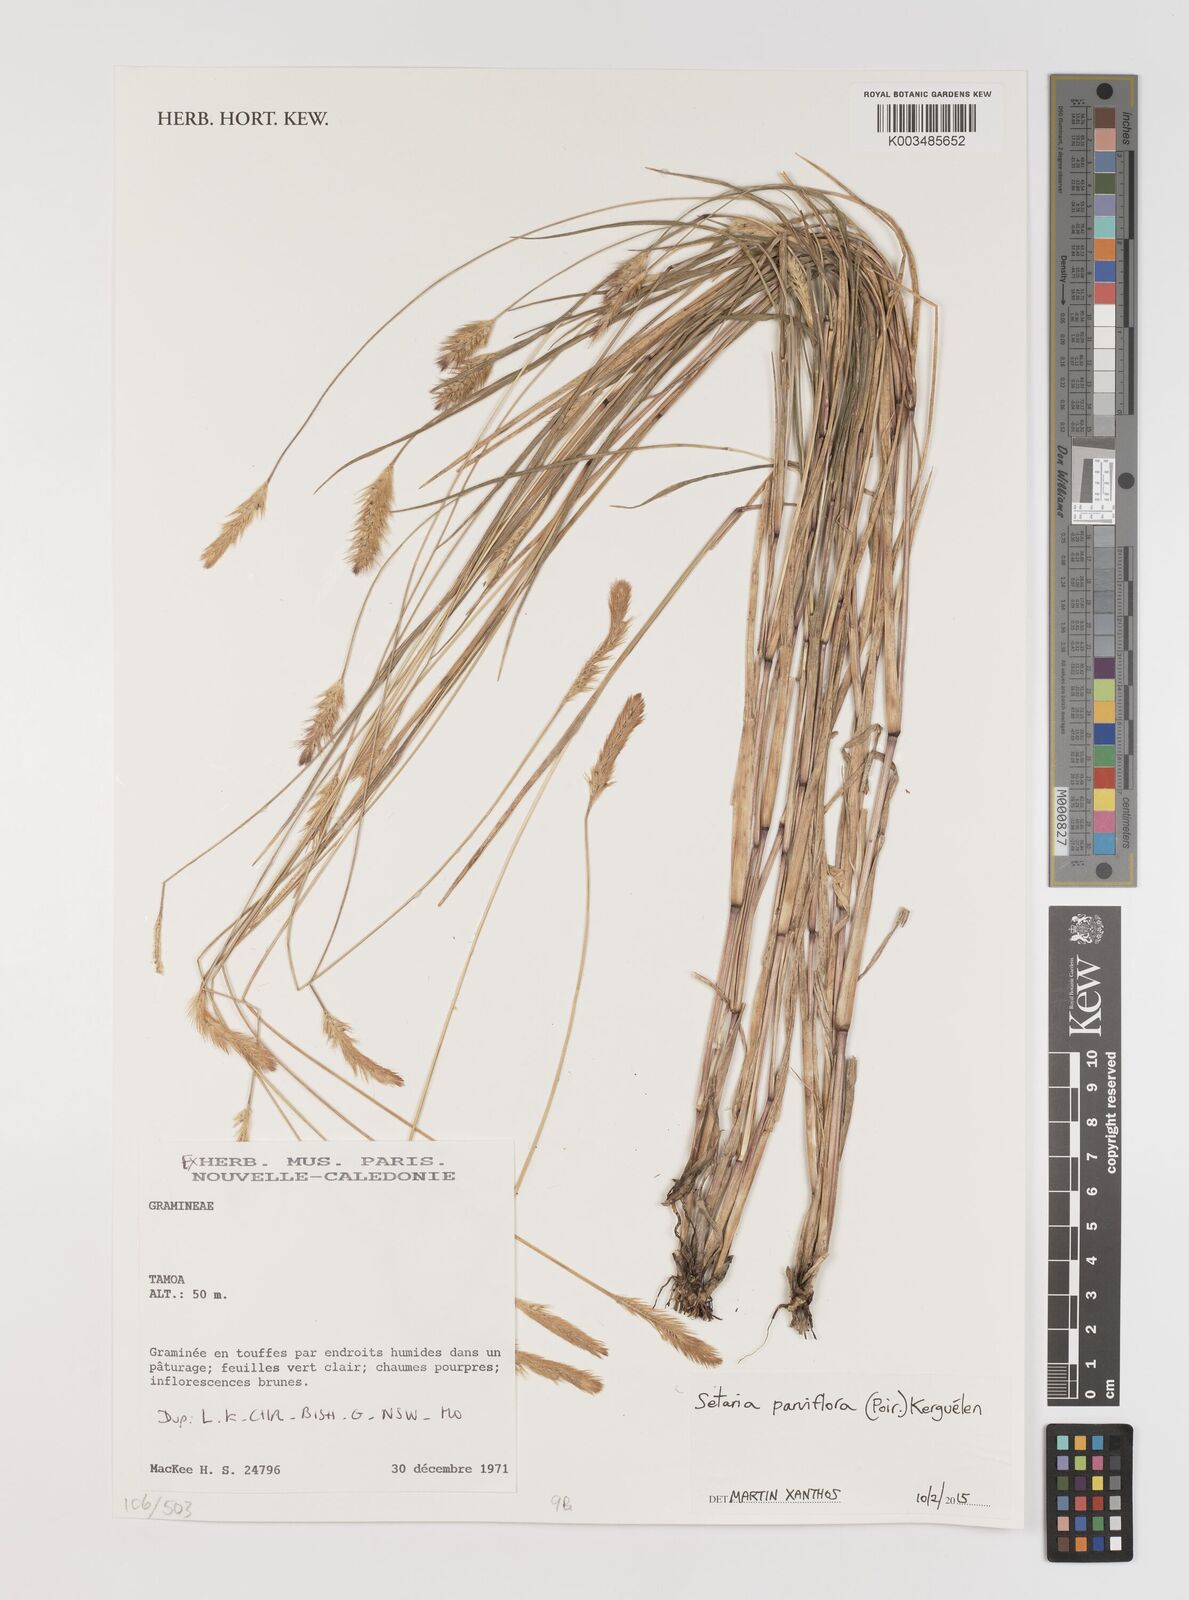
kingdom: Plantae
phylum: Tracheophyta
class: Liliopsida
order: Poales
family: Poaceae
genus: Setaria
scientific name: Setaria parviflora
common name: Knotroot bristle-grass
